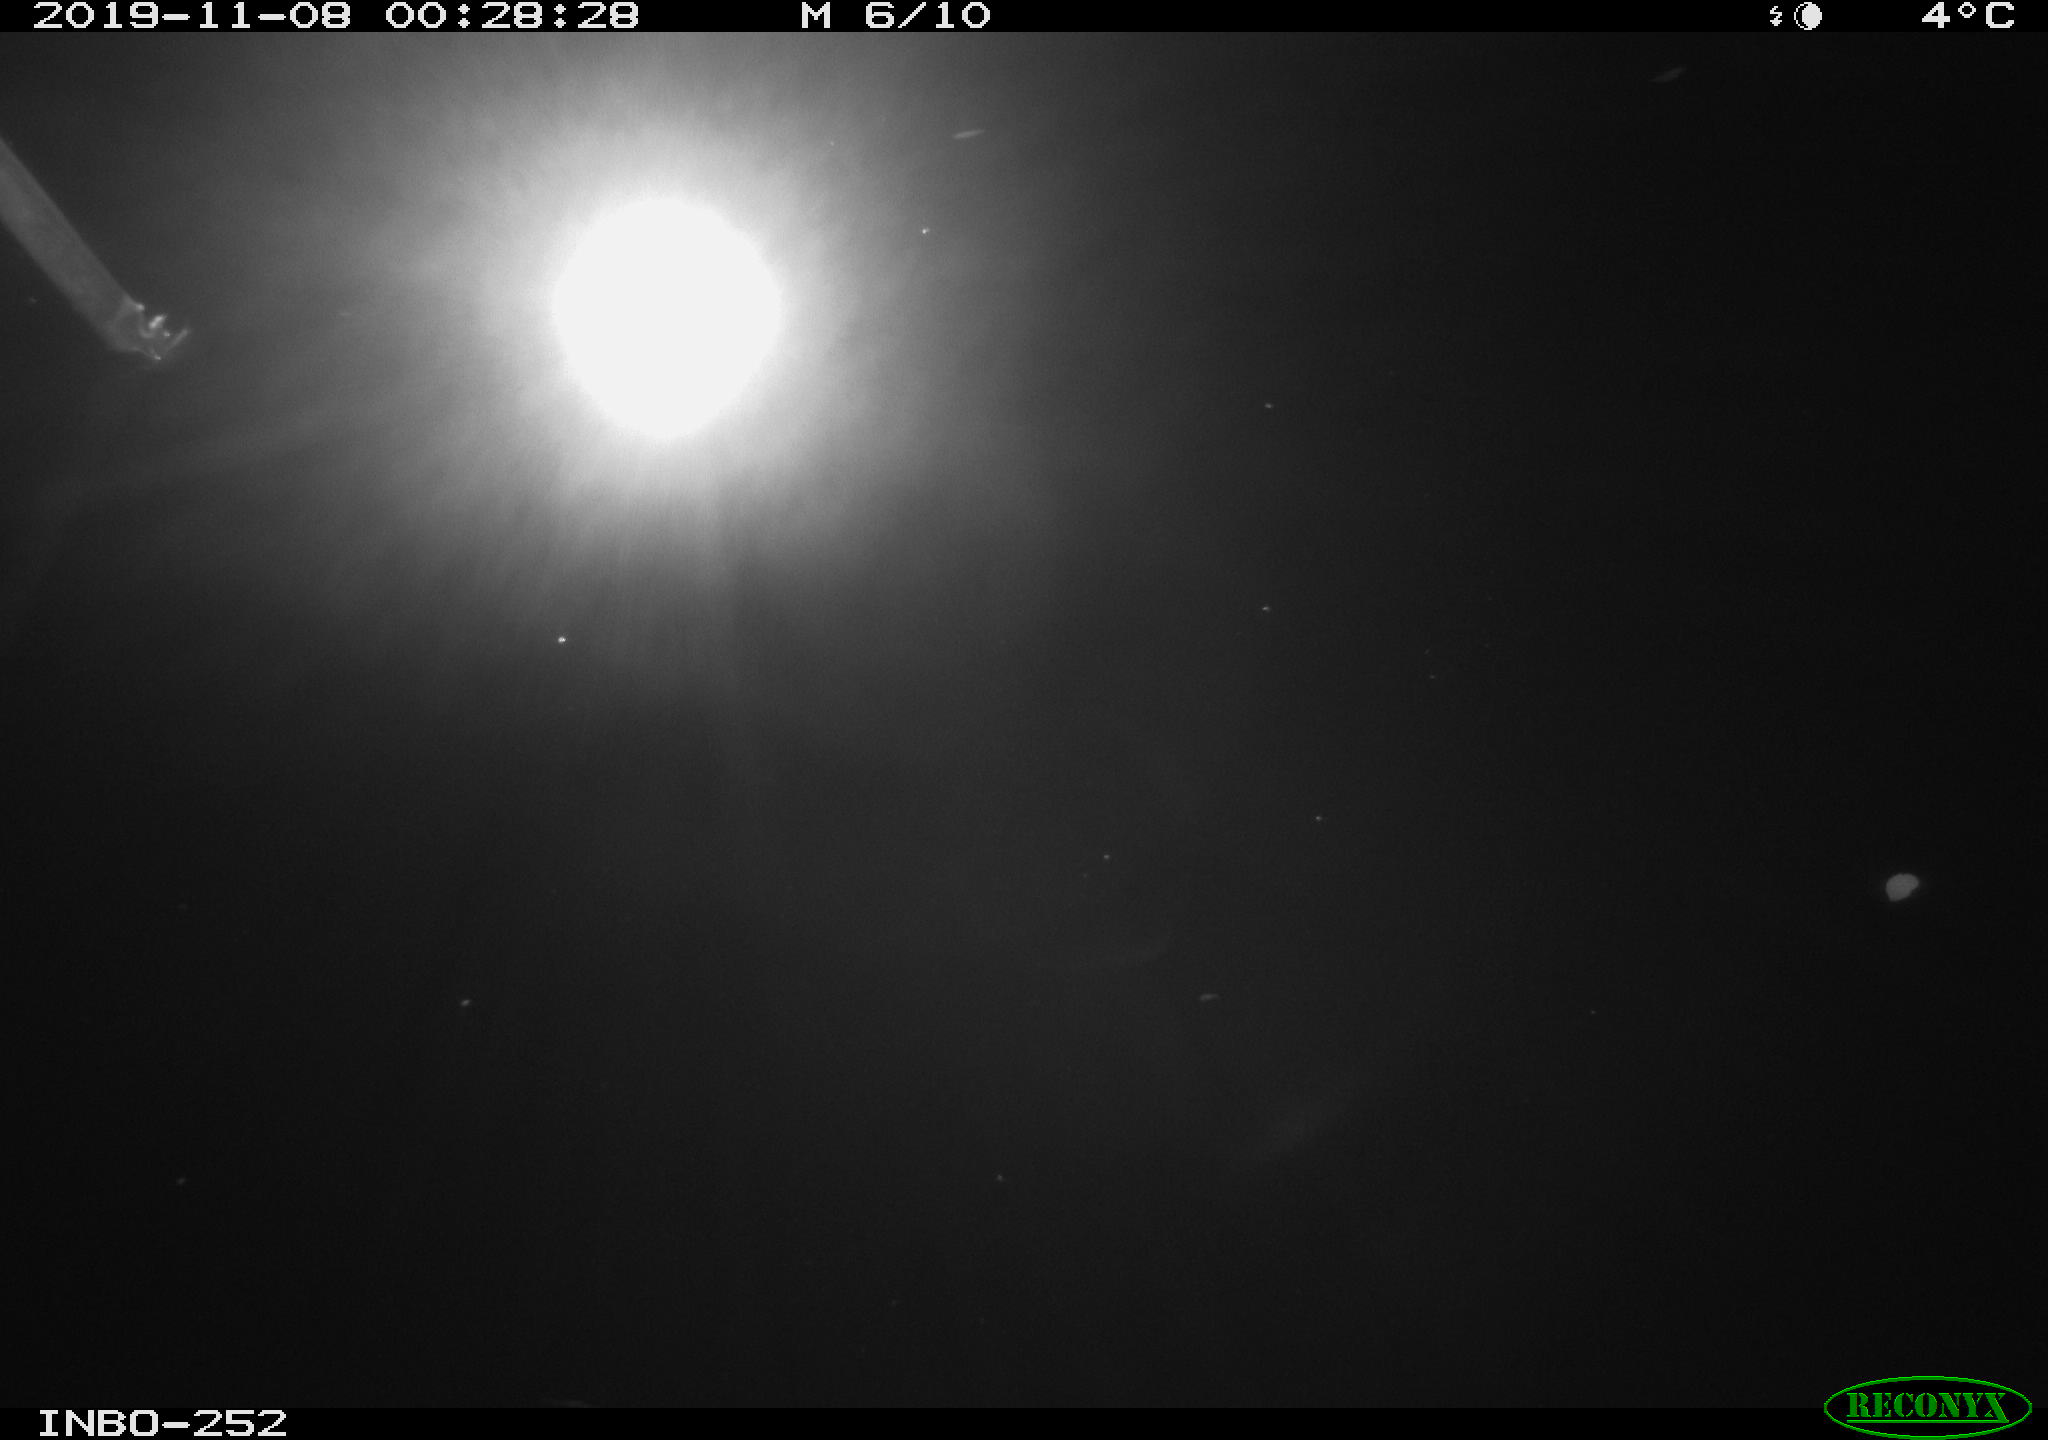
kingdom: Animalia
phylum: Chordata
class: Aves
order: Anseriformes
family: Anatidae
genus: Anas
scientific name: Anas platyrhynchos
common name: Mallard
